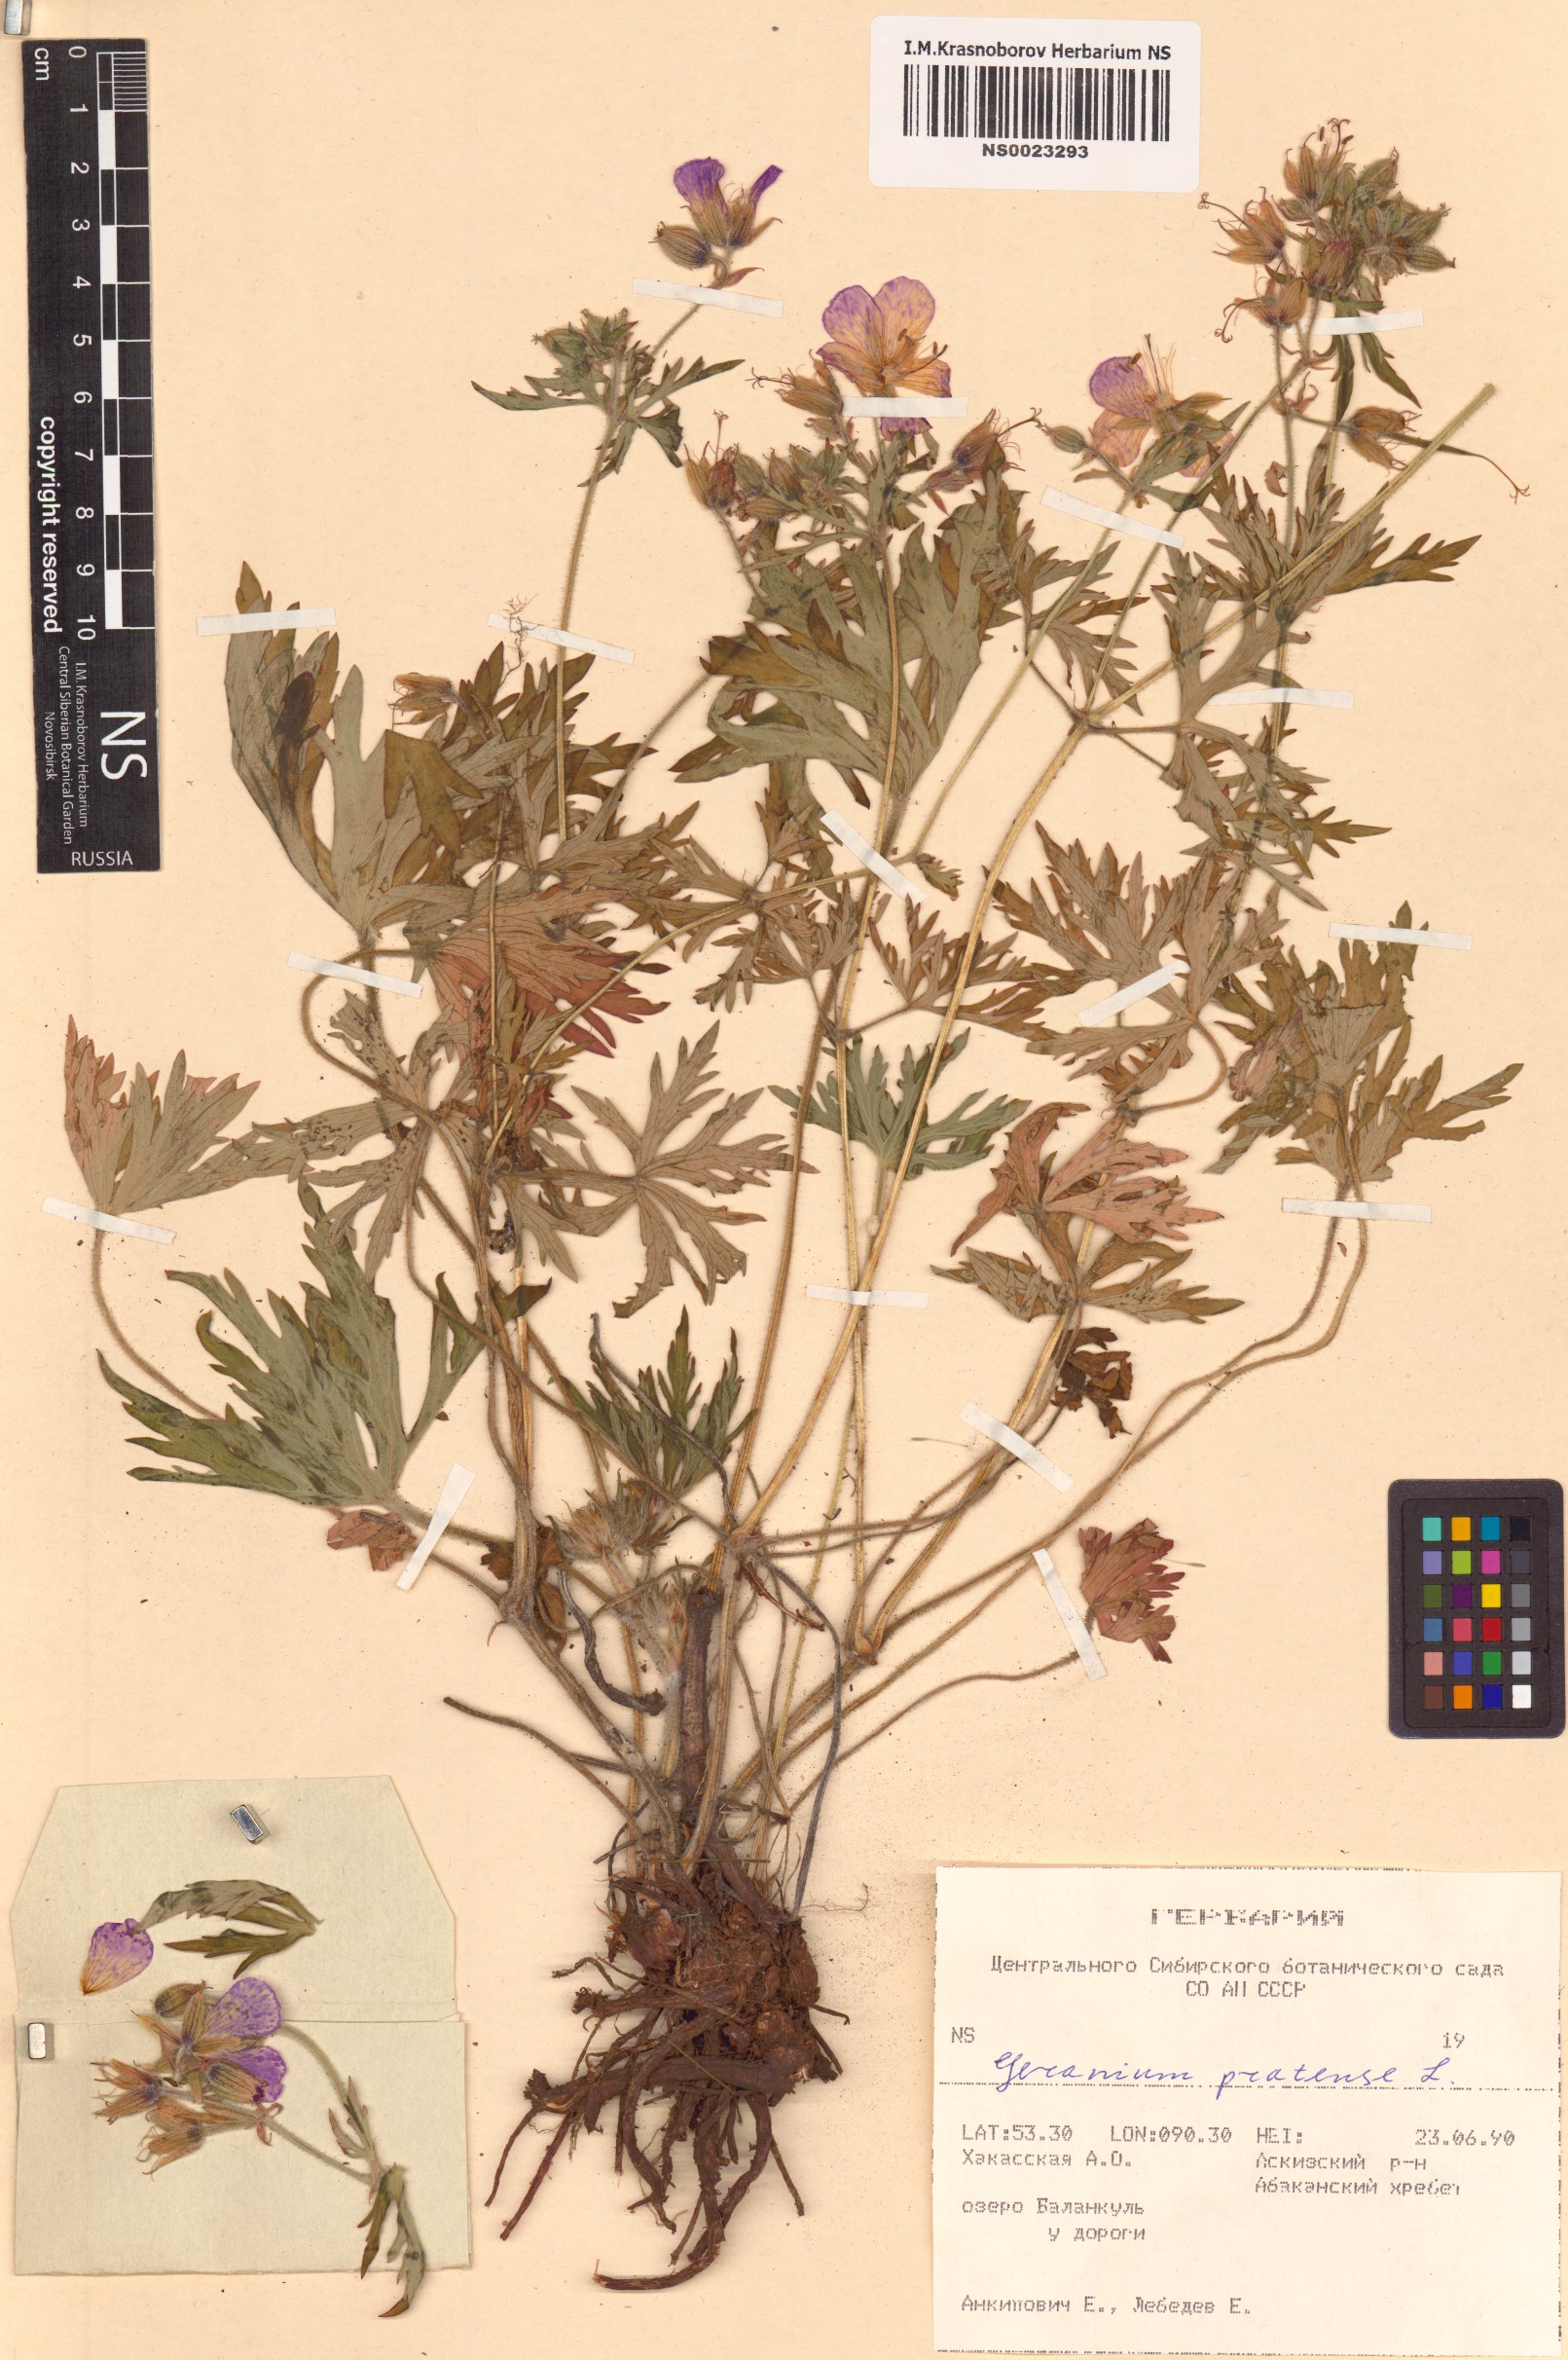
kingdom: Plantae
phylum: Tracheophyta
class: Magnoliopsida
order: Geraniales
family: Geraniaceae
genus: Geranium
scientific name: Geranium pratense
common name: Meadow crane's-bill
